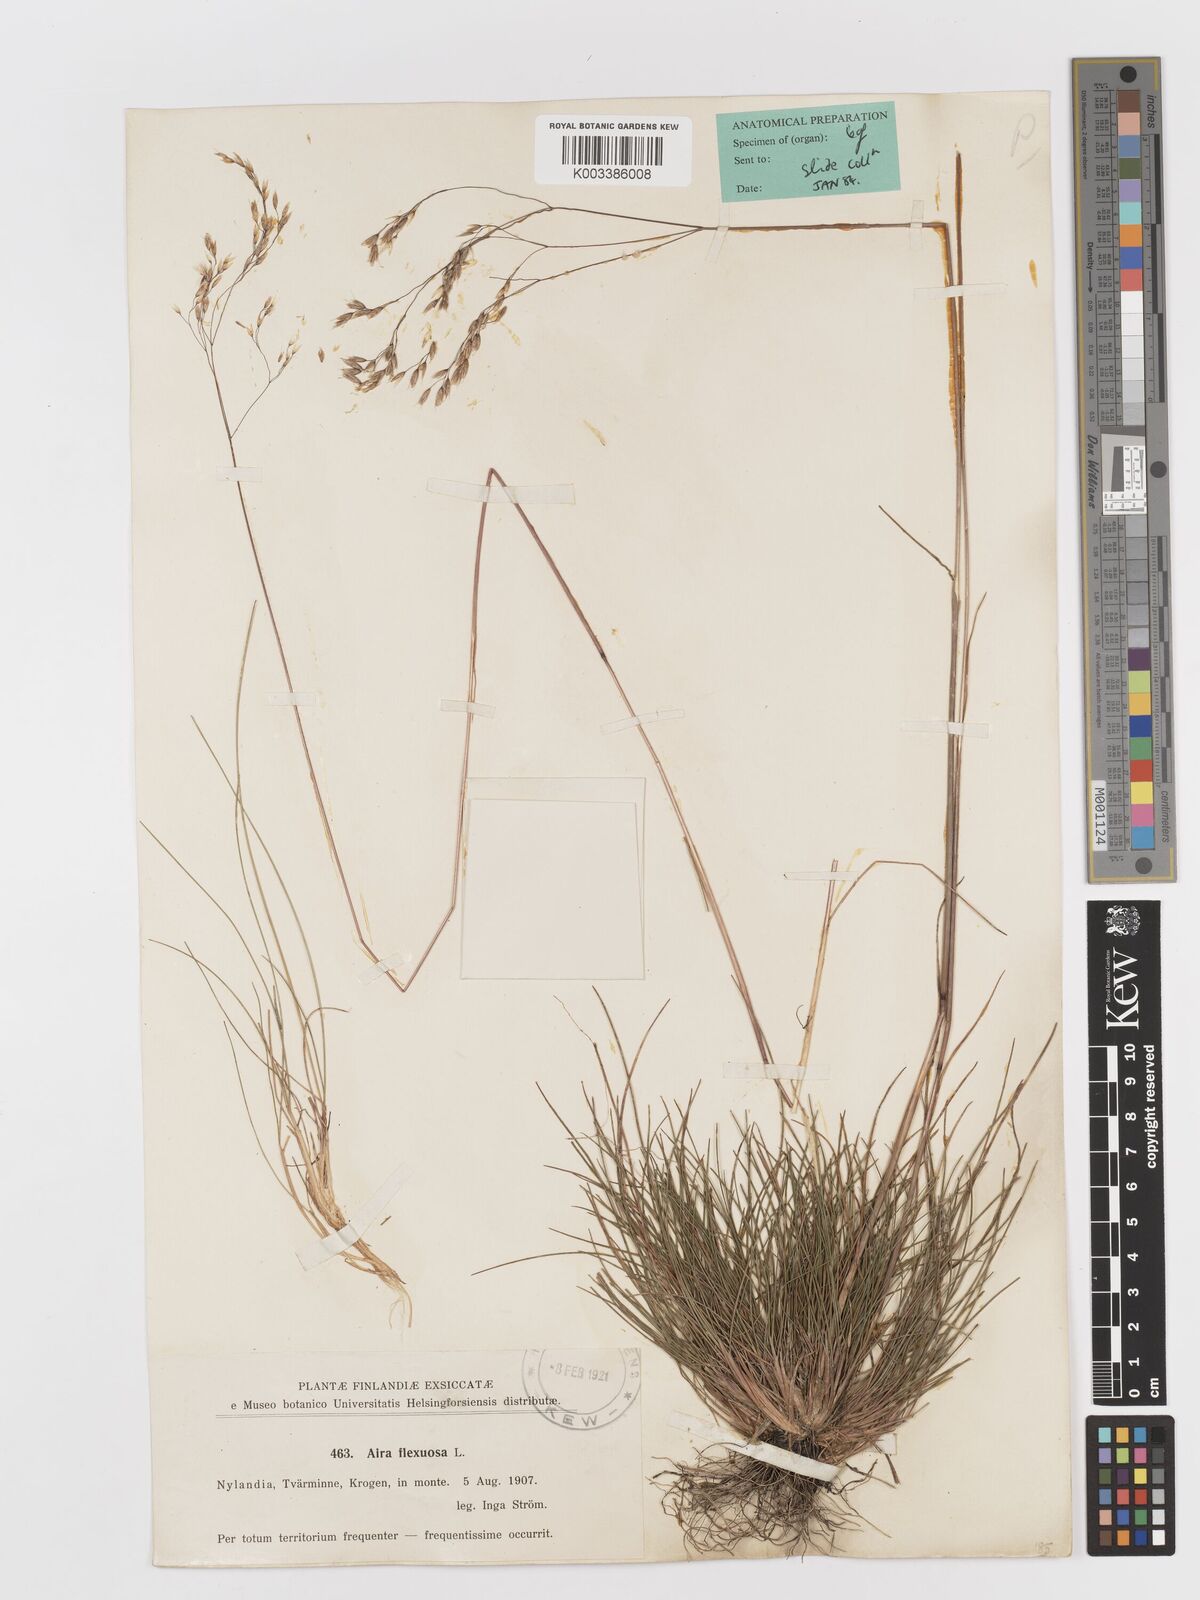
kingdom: Plantae
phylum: Tracheophyta
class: Liliopsida
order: Poales
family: Poaceae
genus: Avenella
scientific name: Avenella flexuosa
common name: Wavy hairgrass
